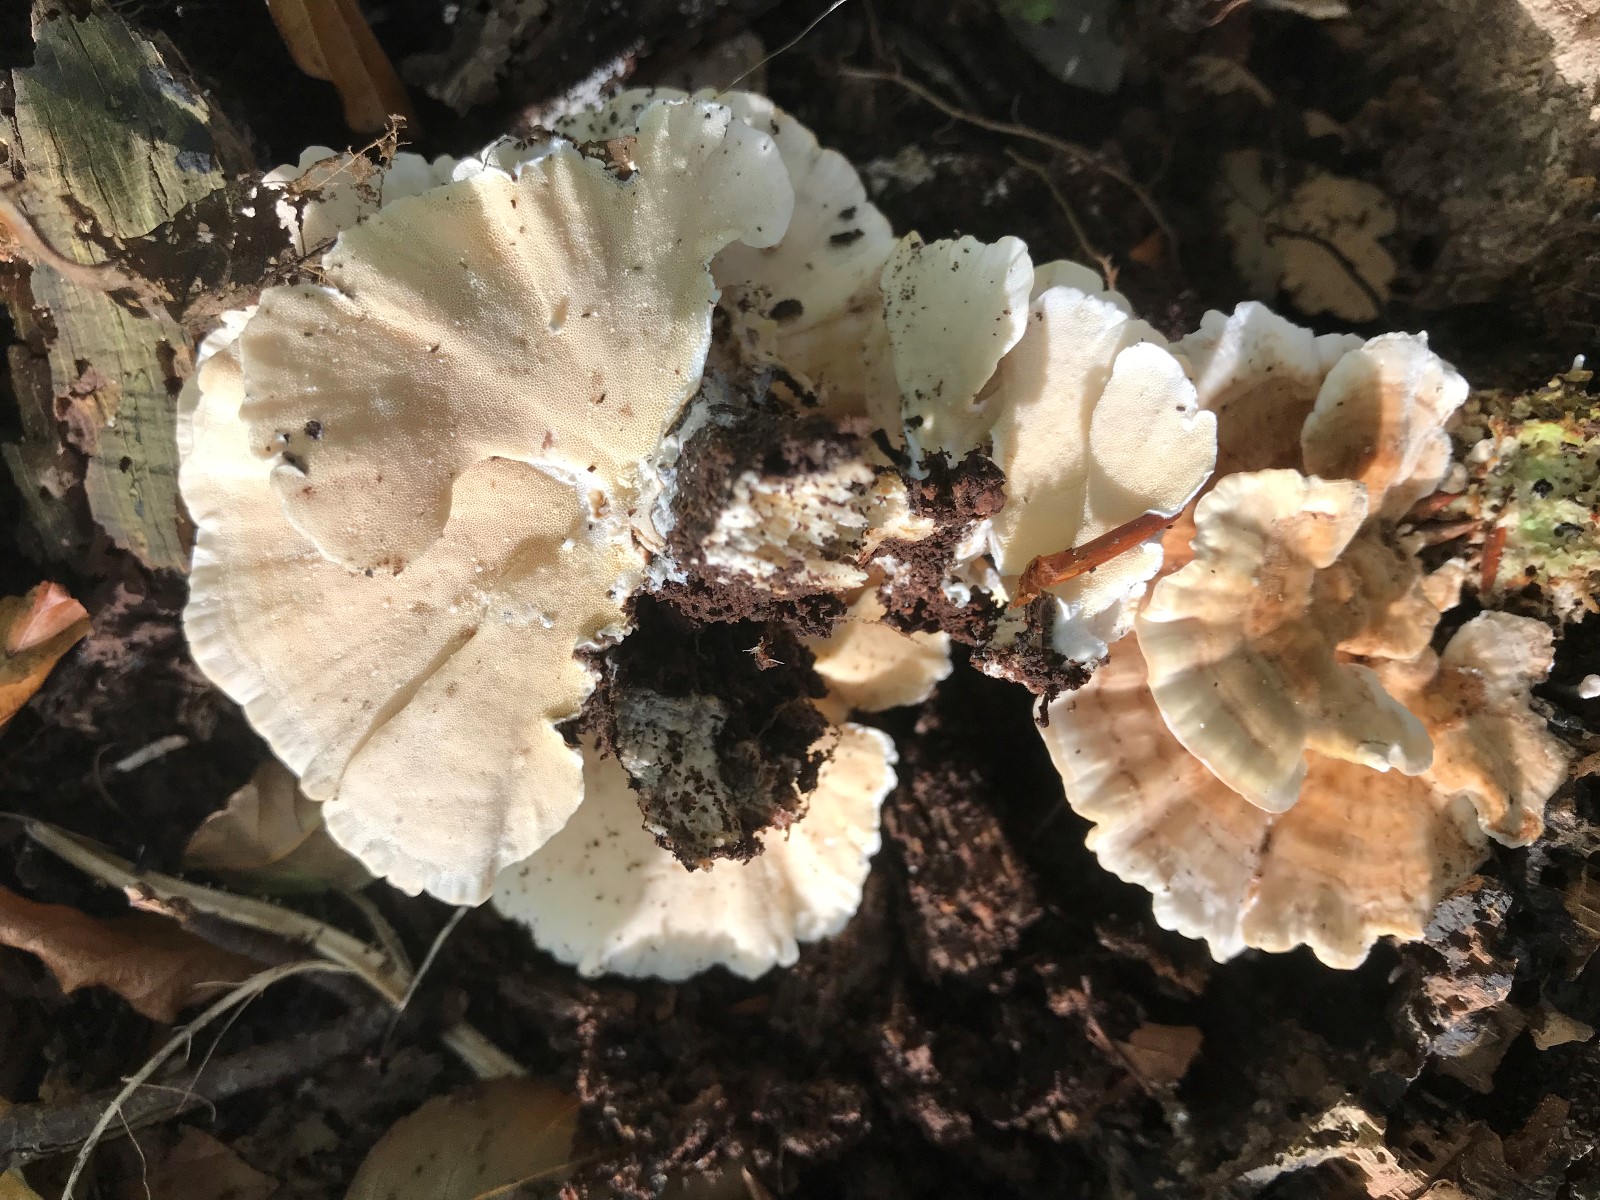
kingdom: Fungi
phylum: Basidiomycota
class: Agaricomycetes
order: Polyporales
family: Polyporaceae
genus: Trametes
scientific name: Trametes ochracea
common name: bæltet læderporesvamp
